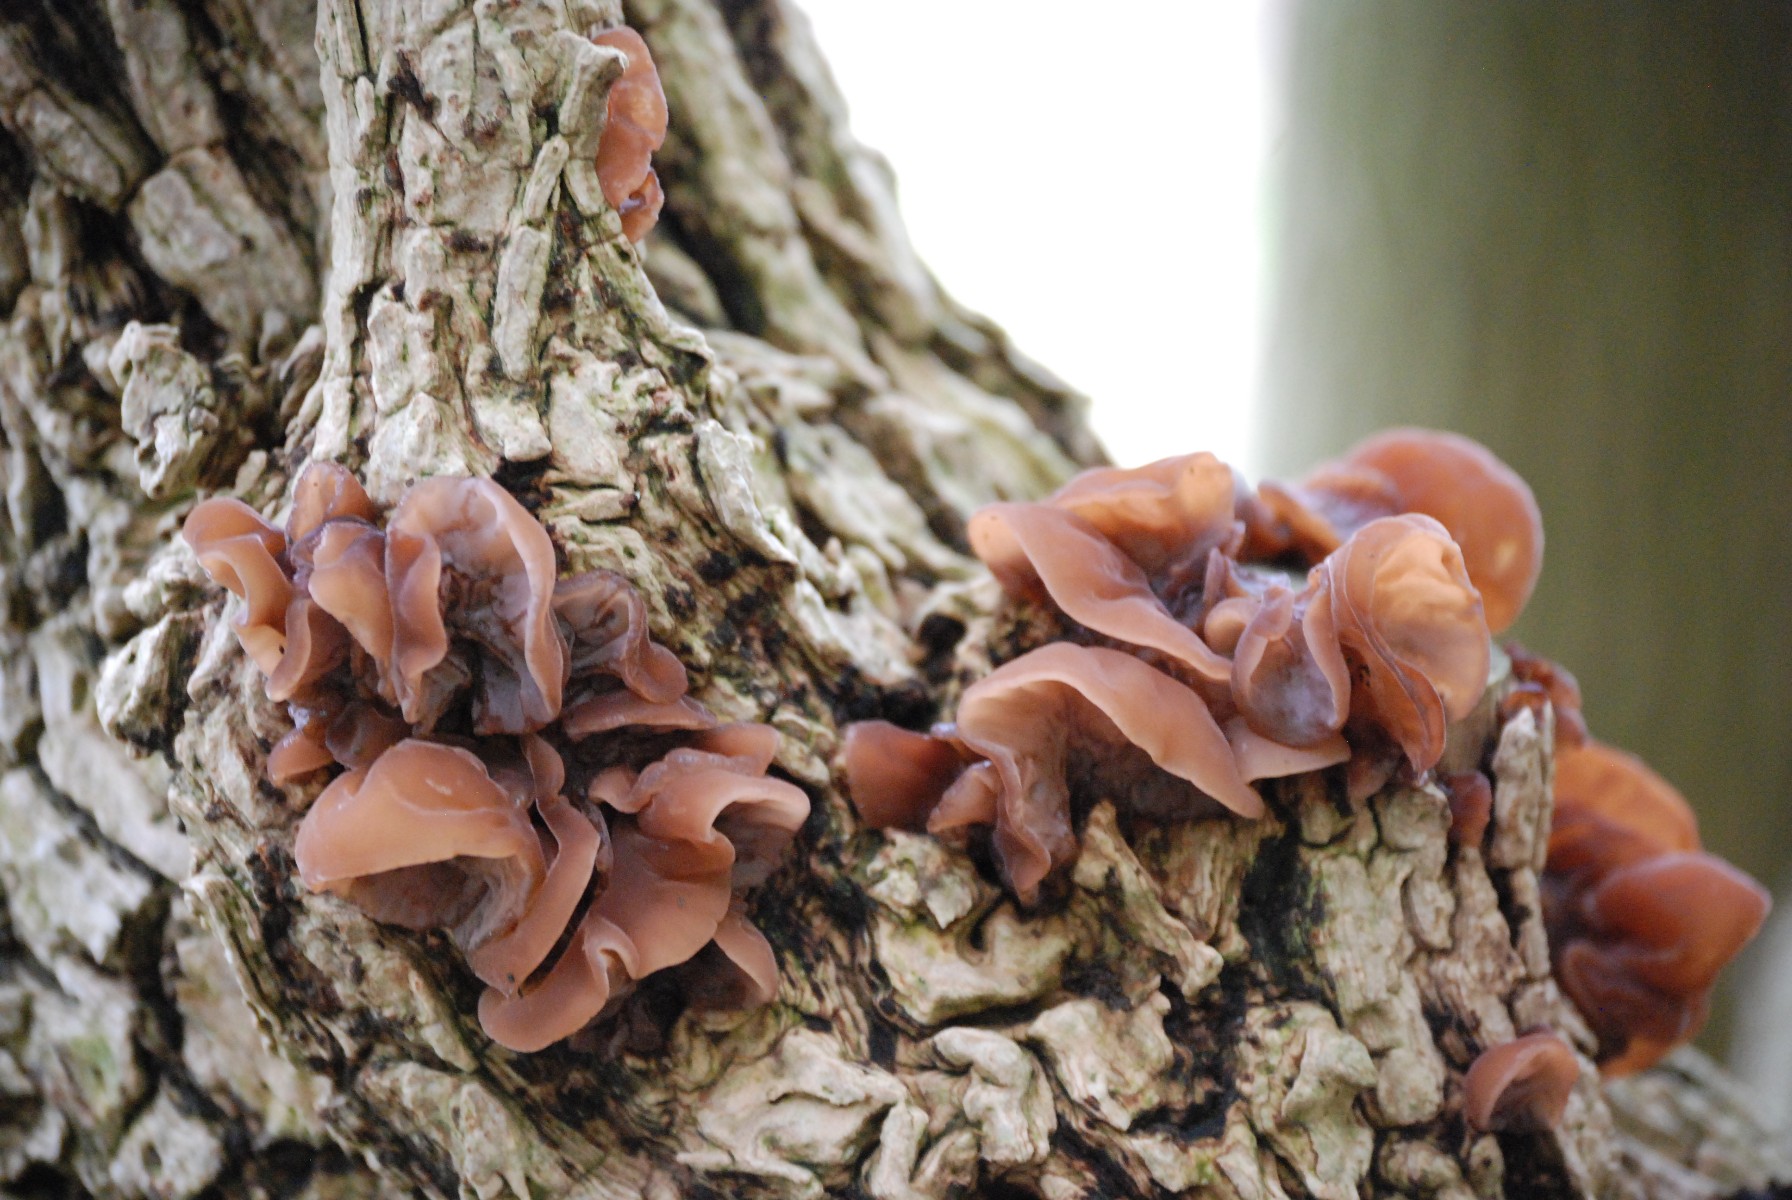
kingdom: Fungi
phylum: Basidiomycota
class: Agaricomycetes
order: Auriculariales
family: Auriculariaceae
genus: Auricularia
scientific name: Auricularia auricula-judae
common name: almindelig judasøre
